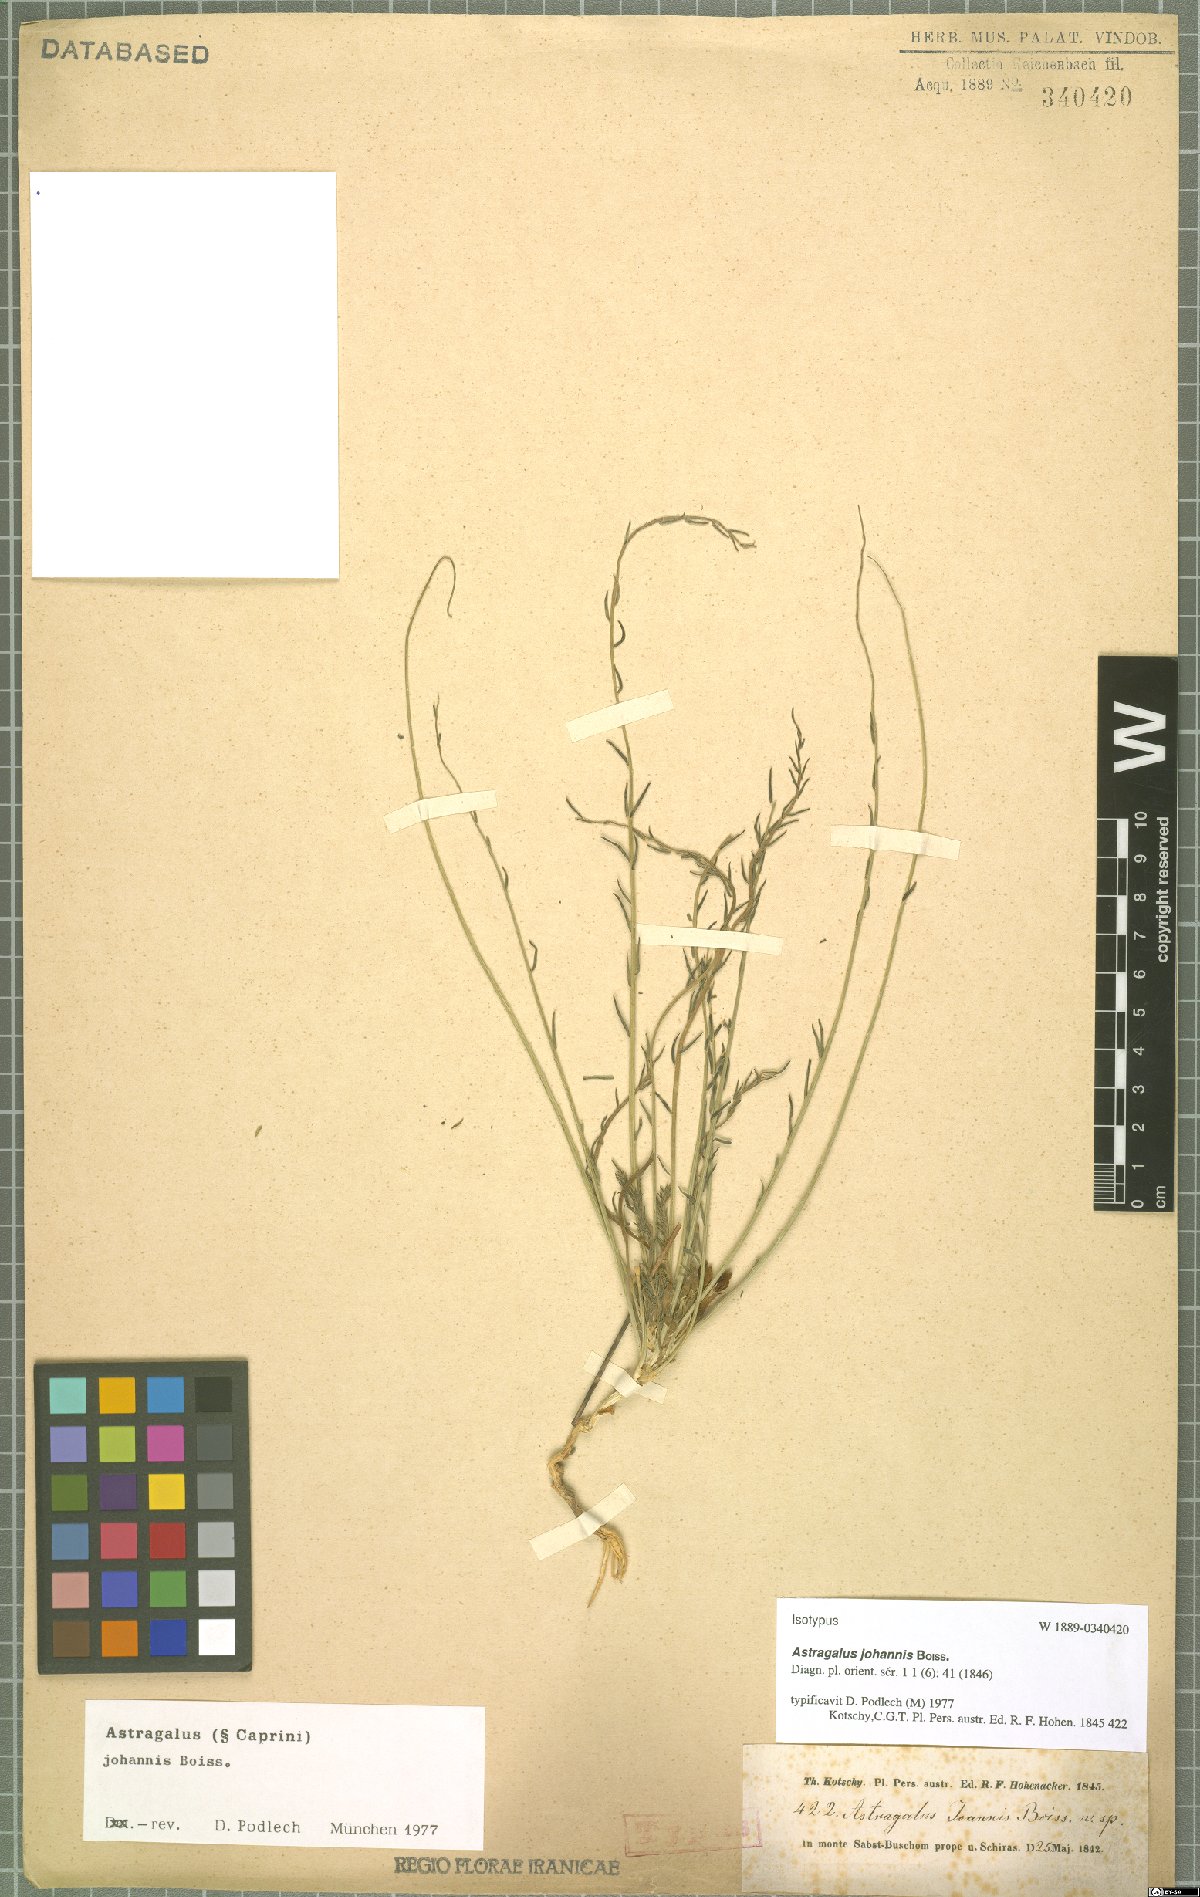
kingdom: Plantae
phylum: Tracheophyta
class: Magnoliopsida
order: Fabales
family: Fabaceae
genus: Astragalus
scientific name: Astragalus johannis
